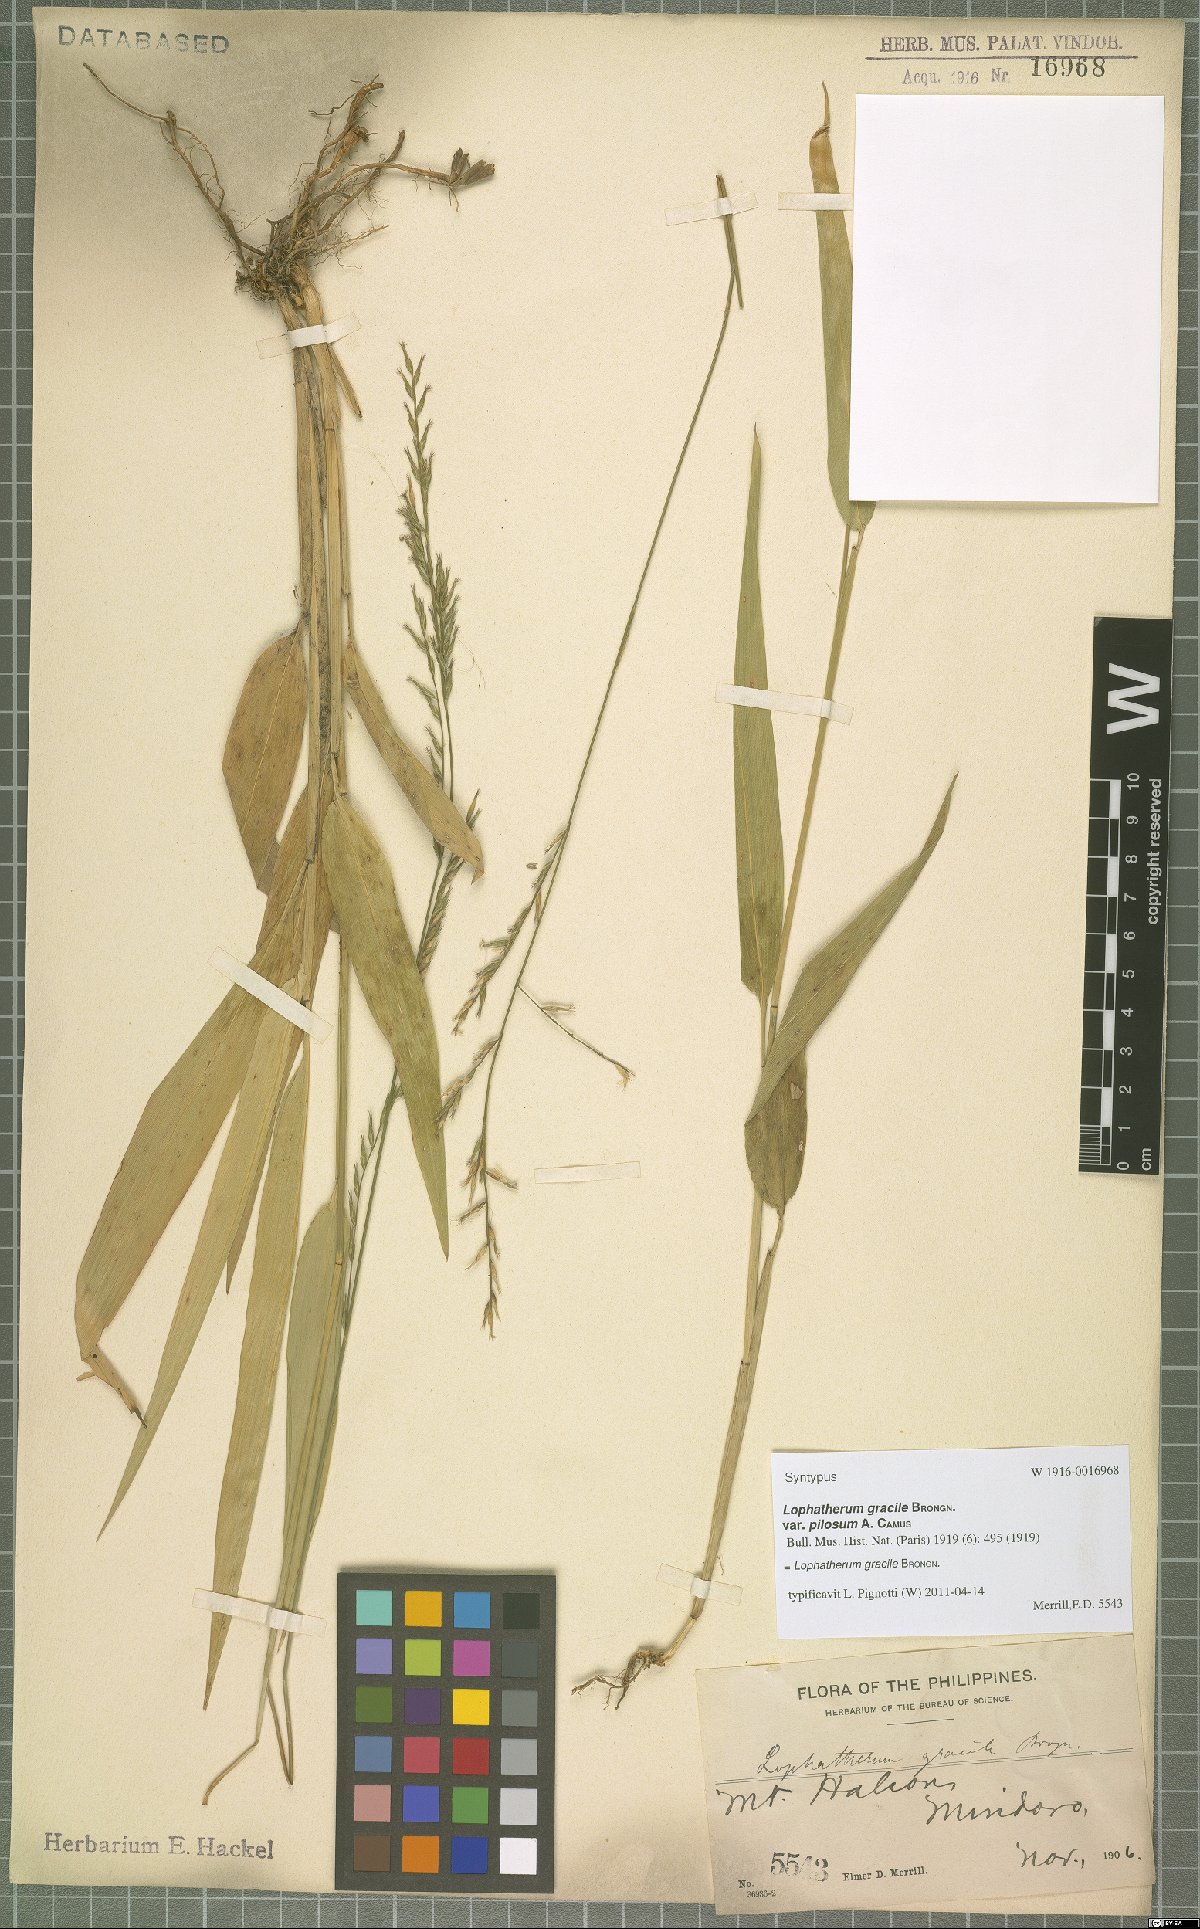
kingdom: Plantae
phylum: Tracheophyta
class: Liliopsida
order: Poales
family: Poaceae
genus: Lophatherum
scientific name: Lophatherum gracile
